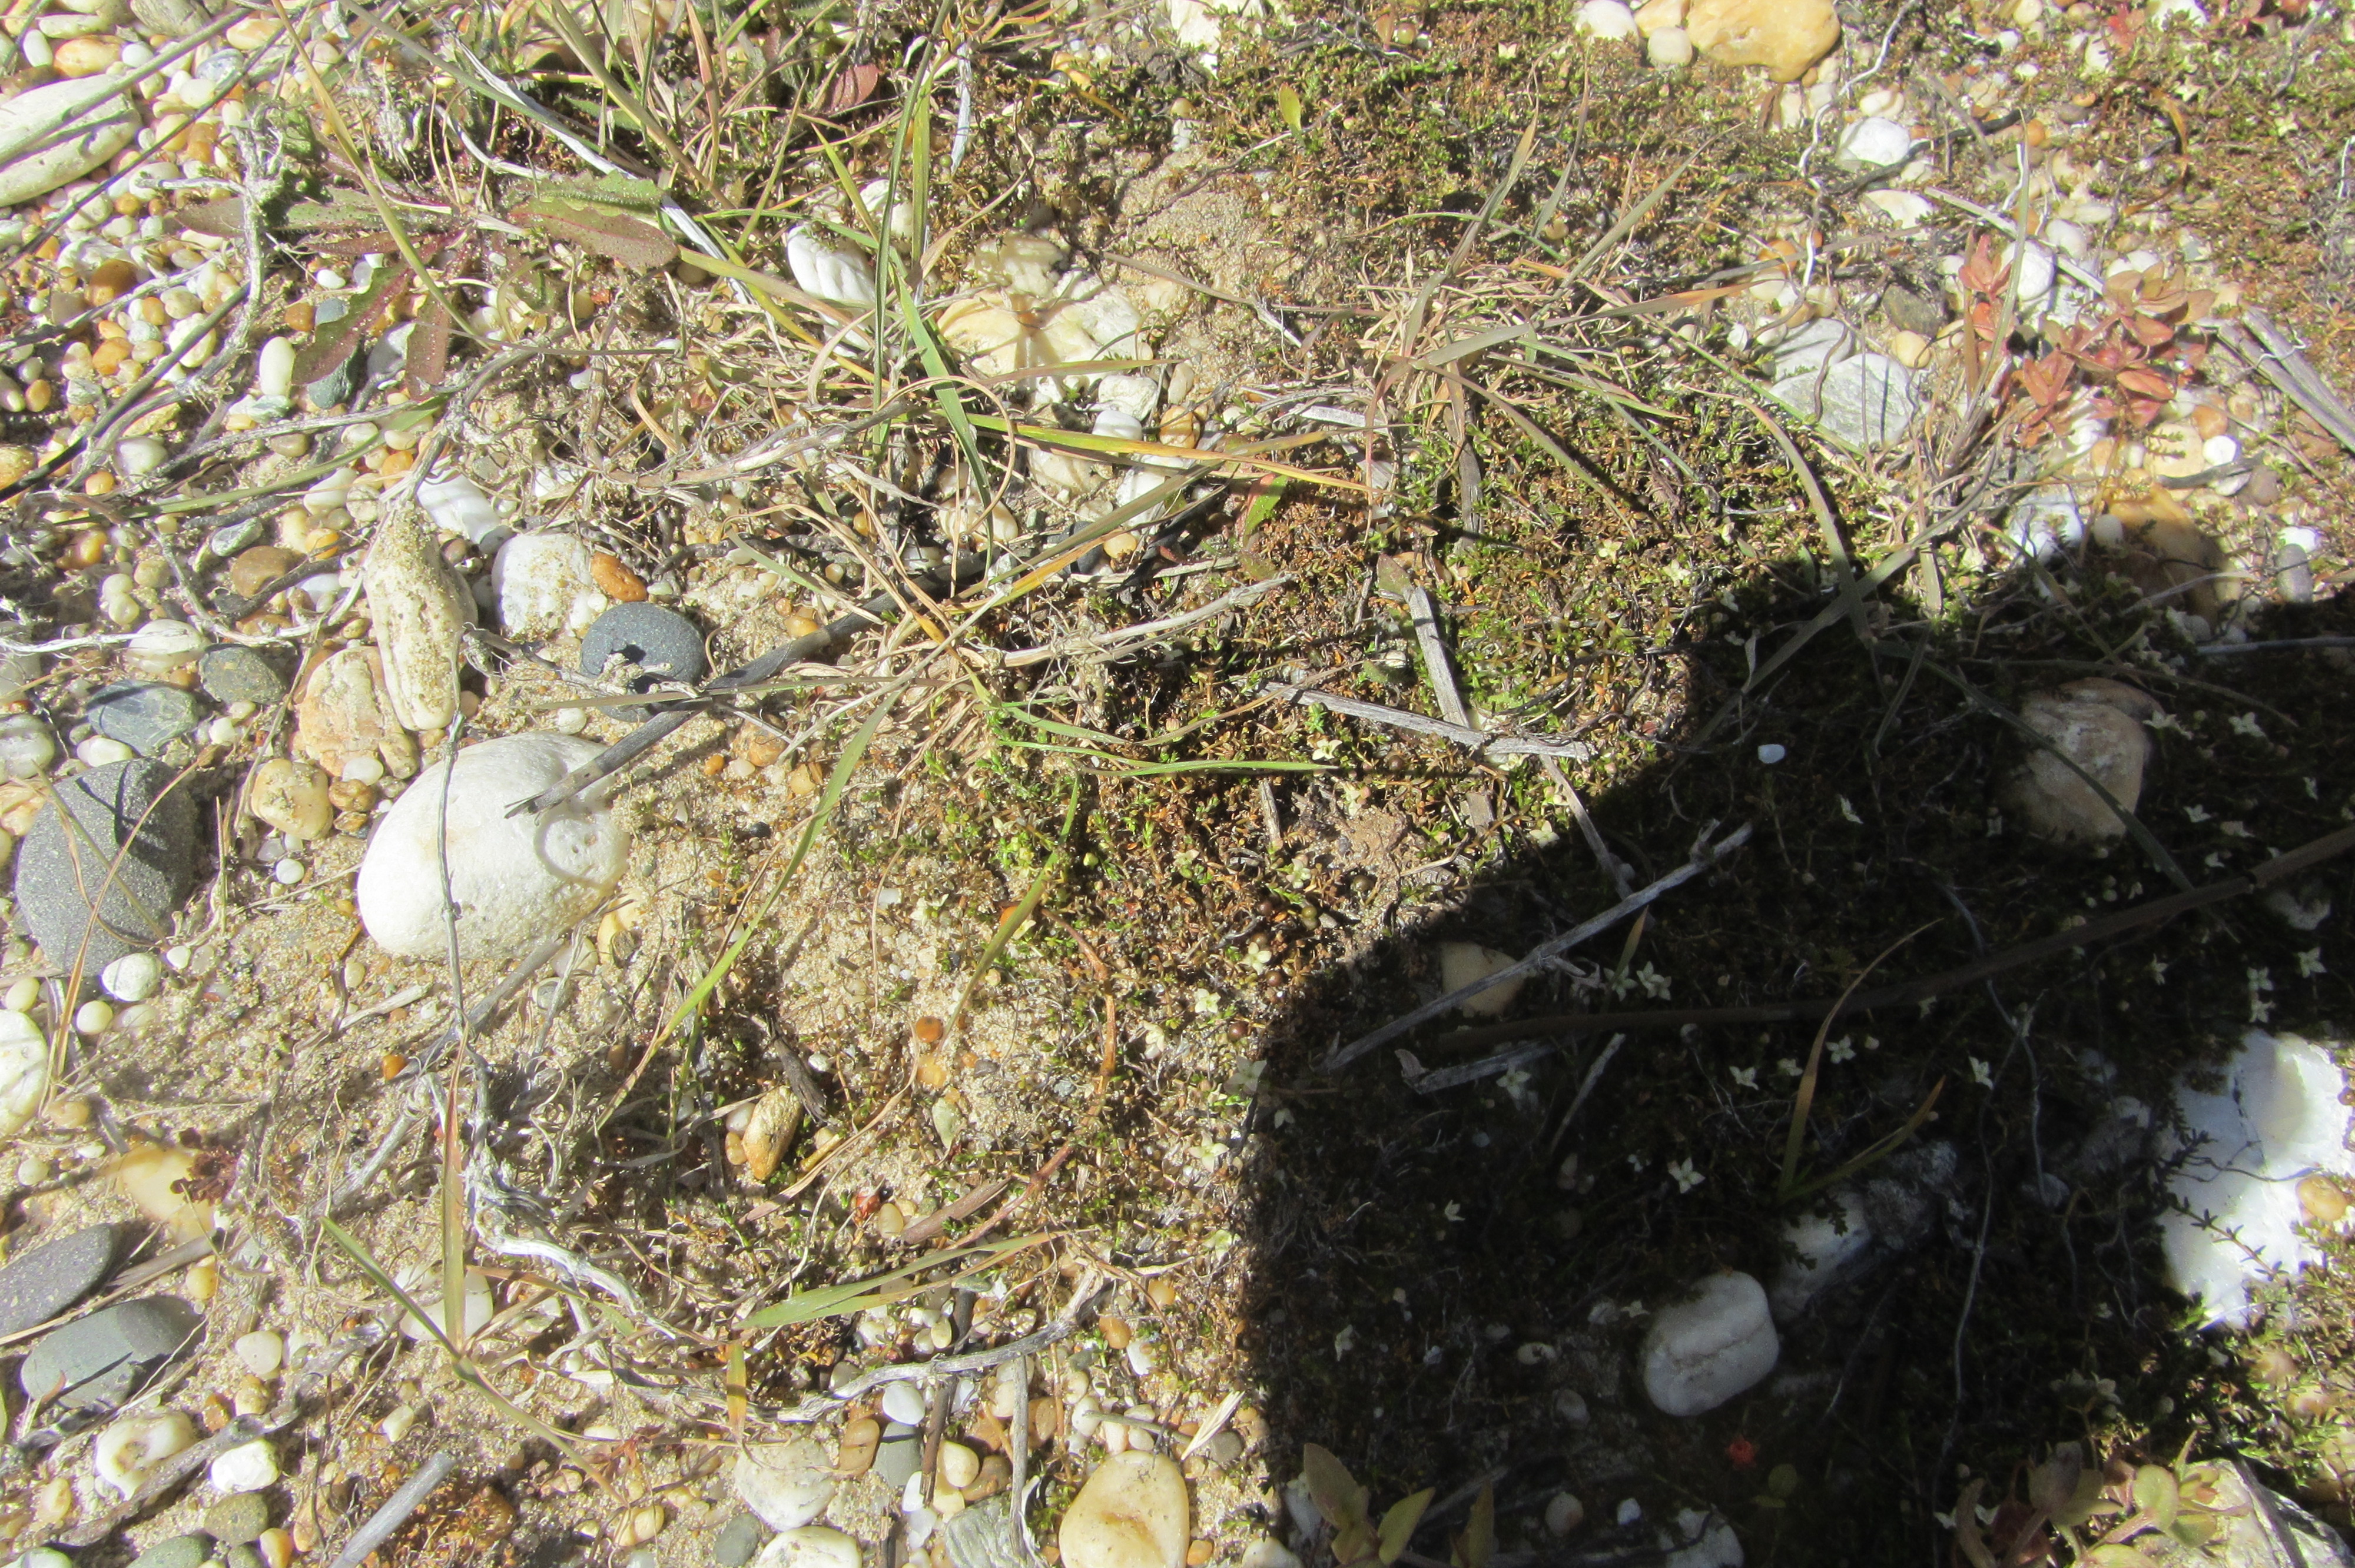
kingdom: Plantae
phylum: Tracheophyta
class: Magnoliopsida
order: Gentianales
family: Rubiaceae
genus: Asperula
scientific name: Asperula perpusilla
